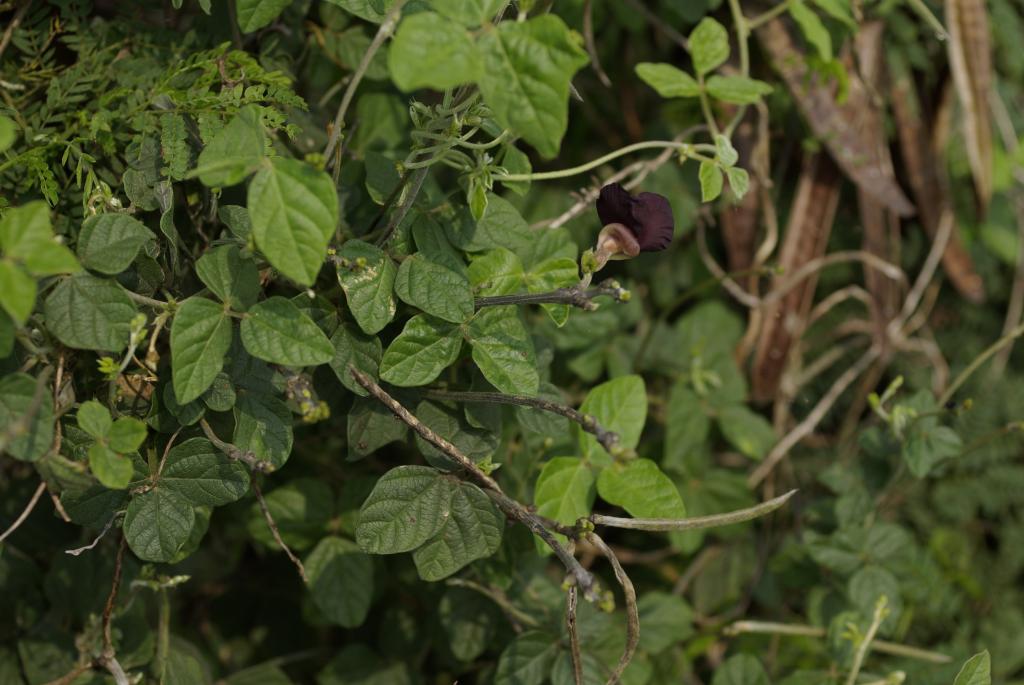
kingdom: Plantae
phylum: Tracheophyta
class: Magnoliopsida
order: Fabales
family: Fabaceae
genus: Macroptilium
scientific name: Macroptilium atropurpureum
